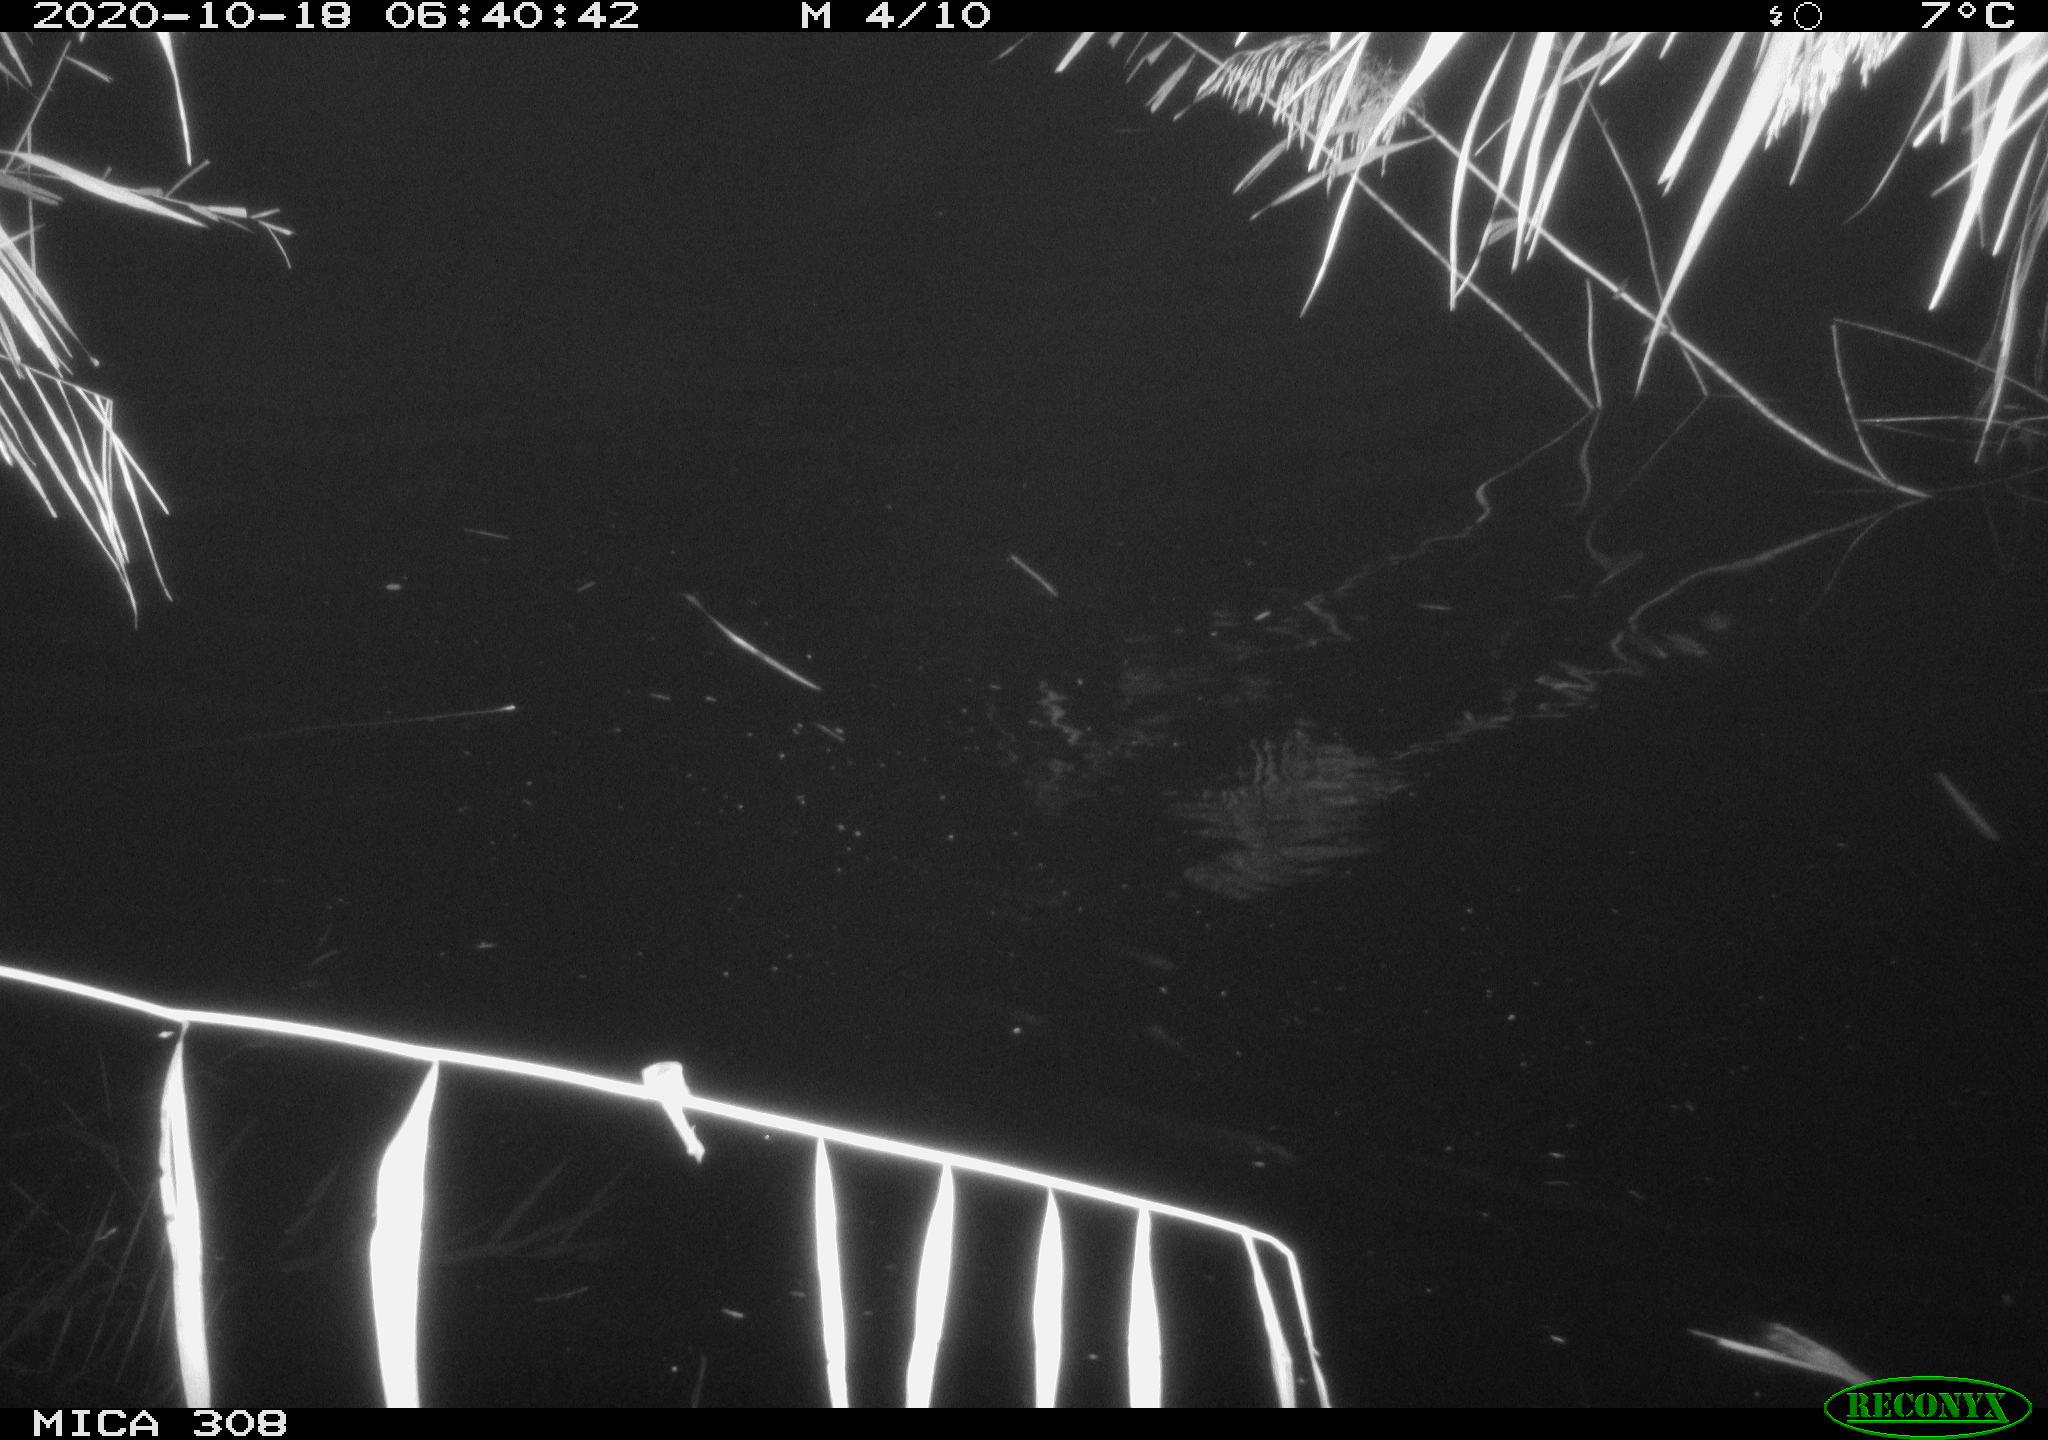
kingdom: Animalia
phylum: Chordata
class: Aves
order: Anseriformes
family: Anatidae
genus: Anas
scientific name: Anas platyrhynchos
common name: Mallard
